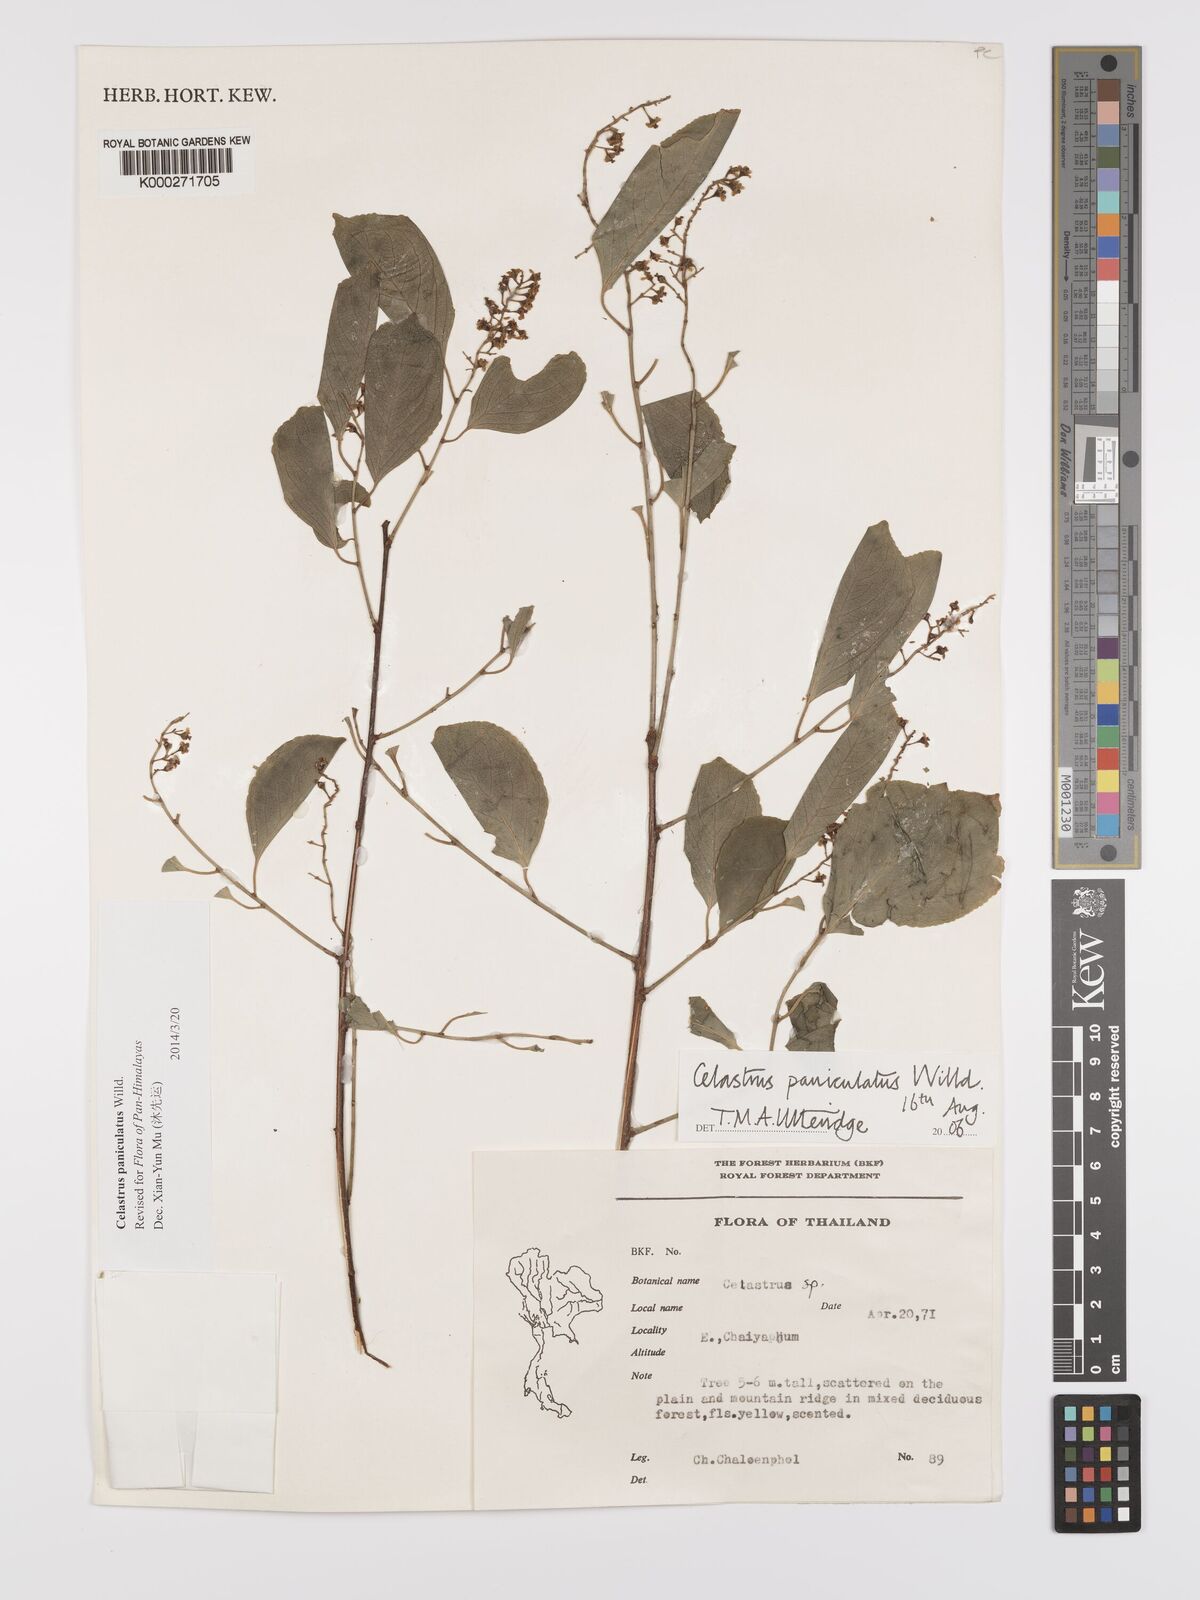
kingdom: Plantae
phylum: Tracheophyta
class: Magnoliopsida
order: Celastrales
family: Celastraceae
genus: Celastrus
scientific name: Celastrus paniculatus
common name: Oriental bittersweet; staff vine
